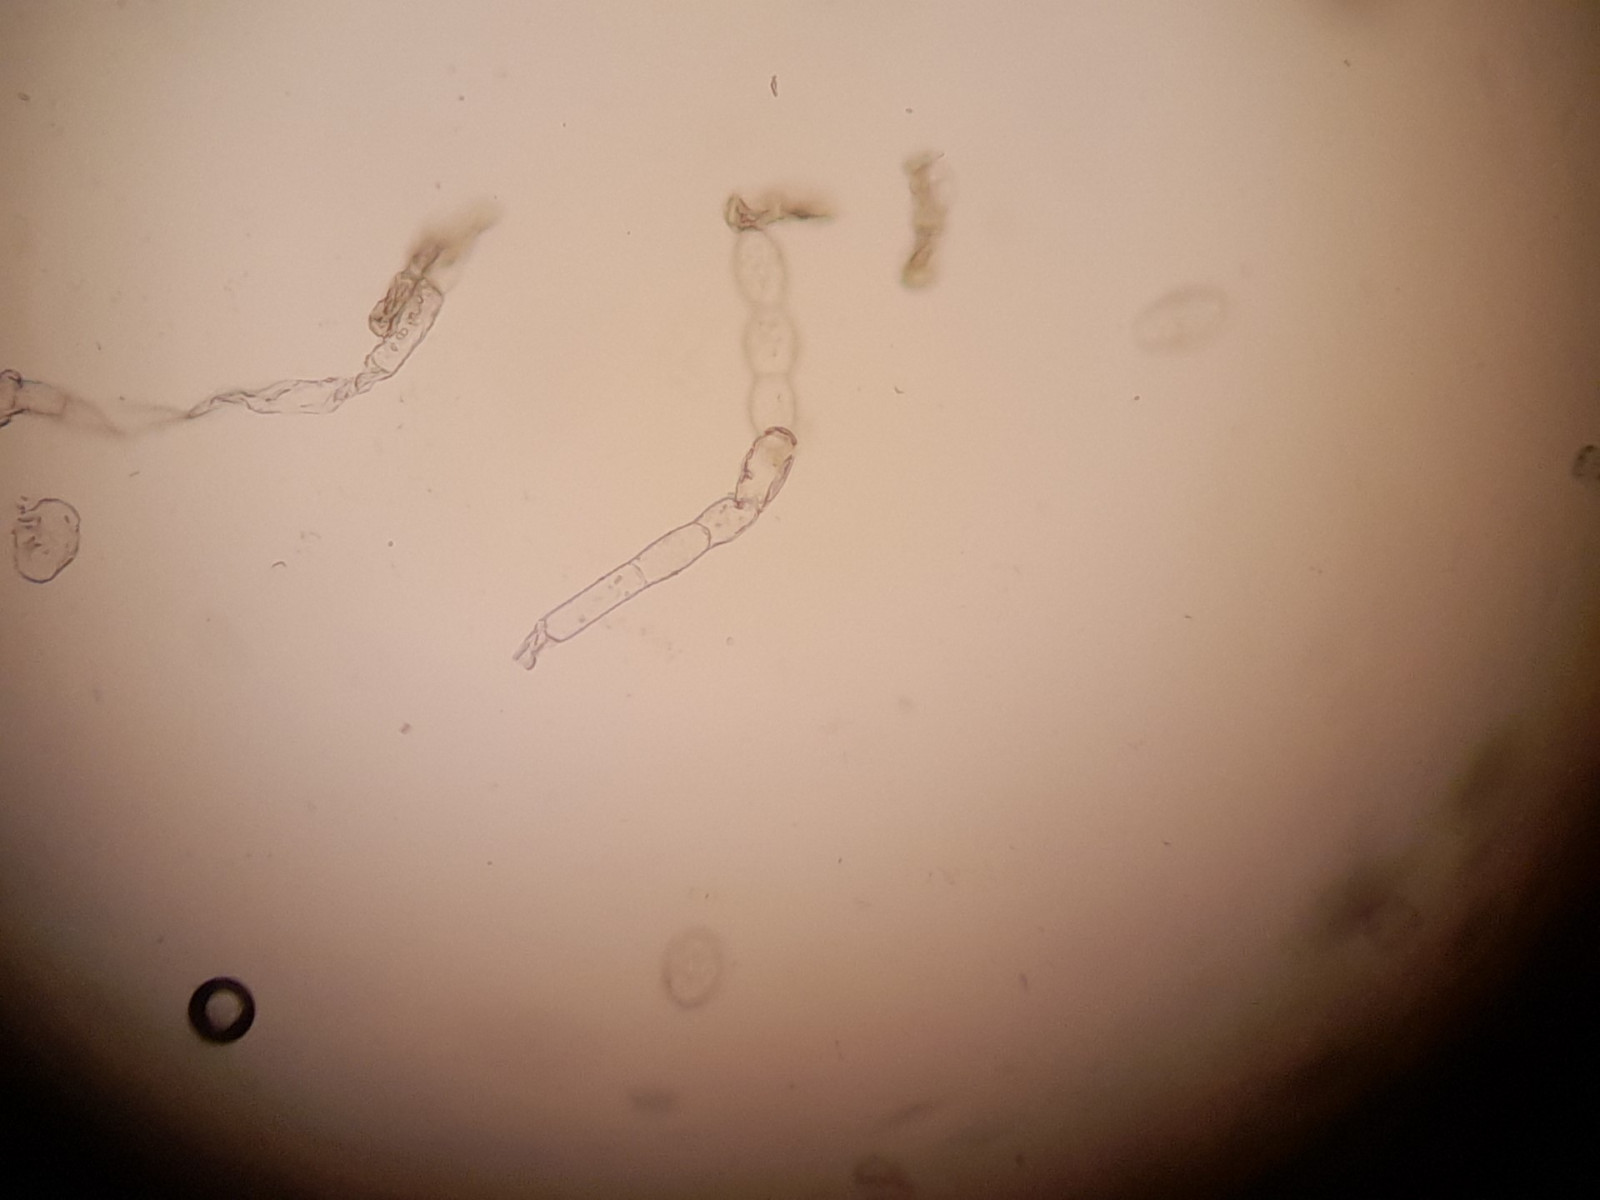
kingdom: Fungi
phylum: Ascomycota
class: Leotiomycetes
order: Helotiales
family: Erysiphaceae
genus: Podosphaera
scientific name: Podosphaera fugax
